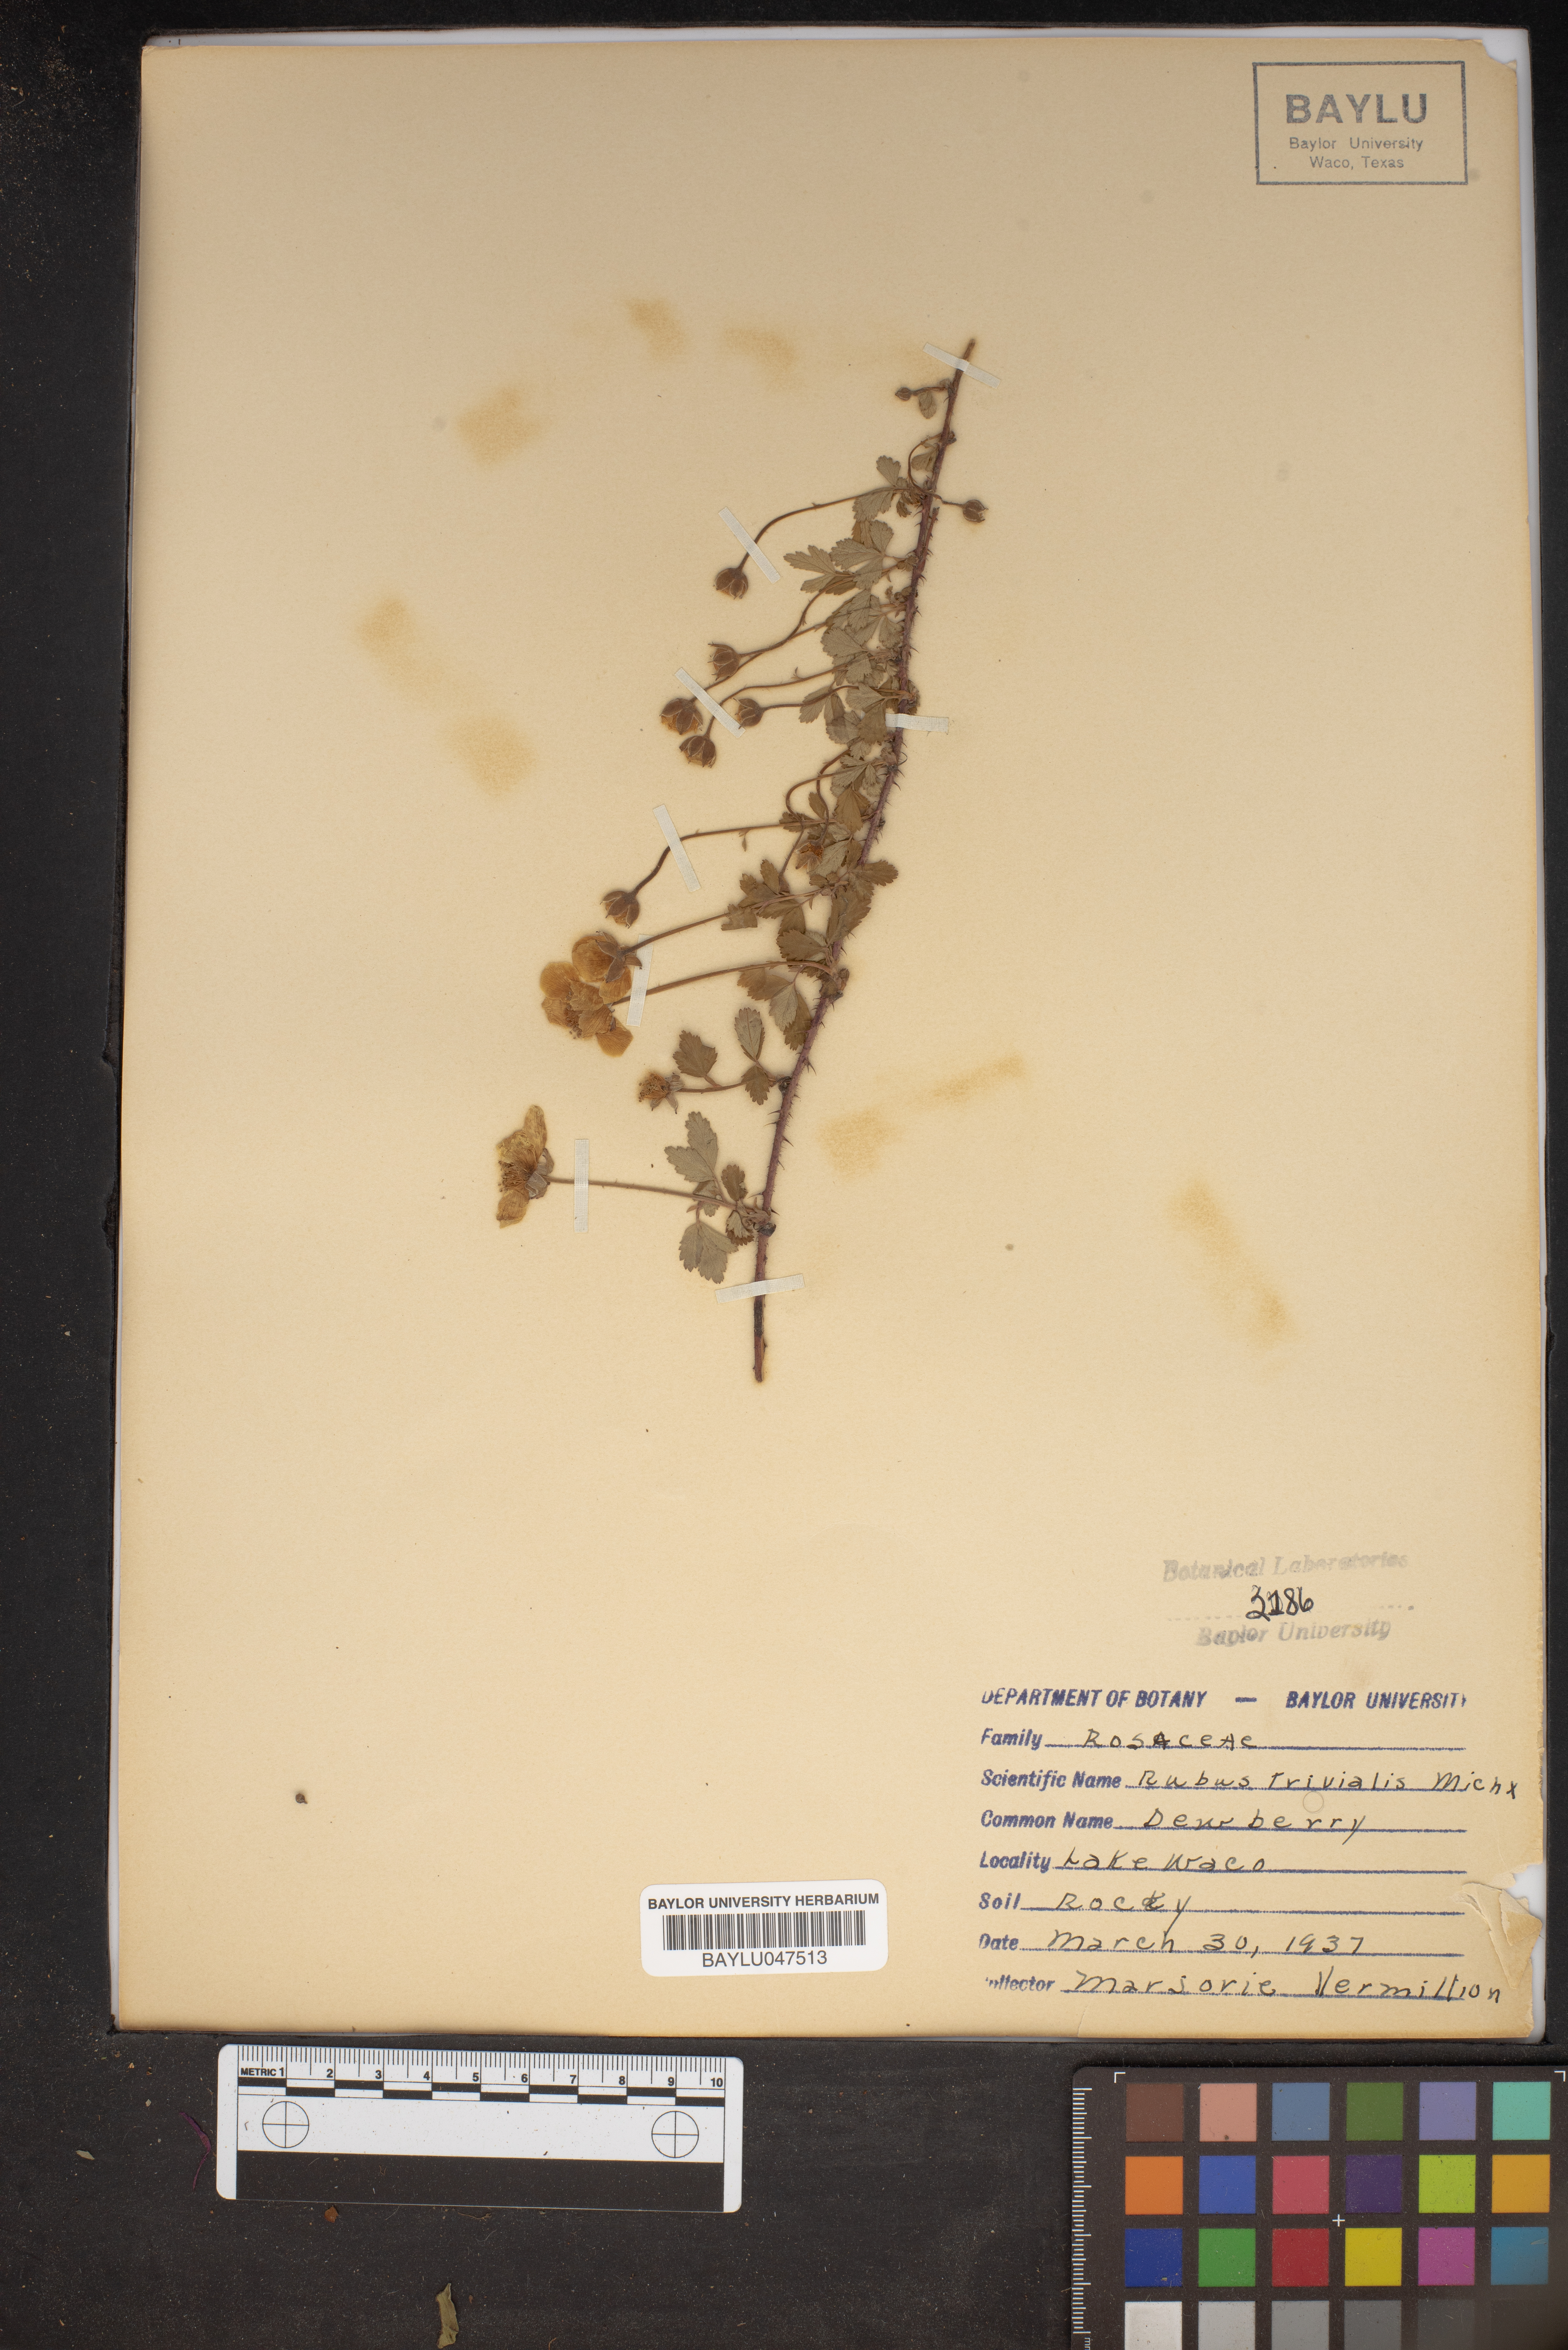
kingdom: Plantae
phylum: Tracheophyta
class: Magnoliopsida
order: Rosales
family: Rosaceae
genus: Rubus
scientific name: Rubus trivialis
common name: Southern dewberry
